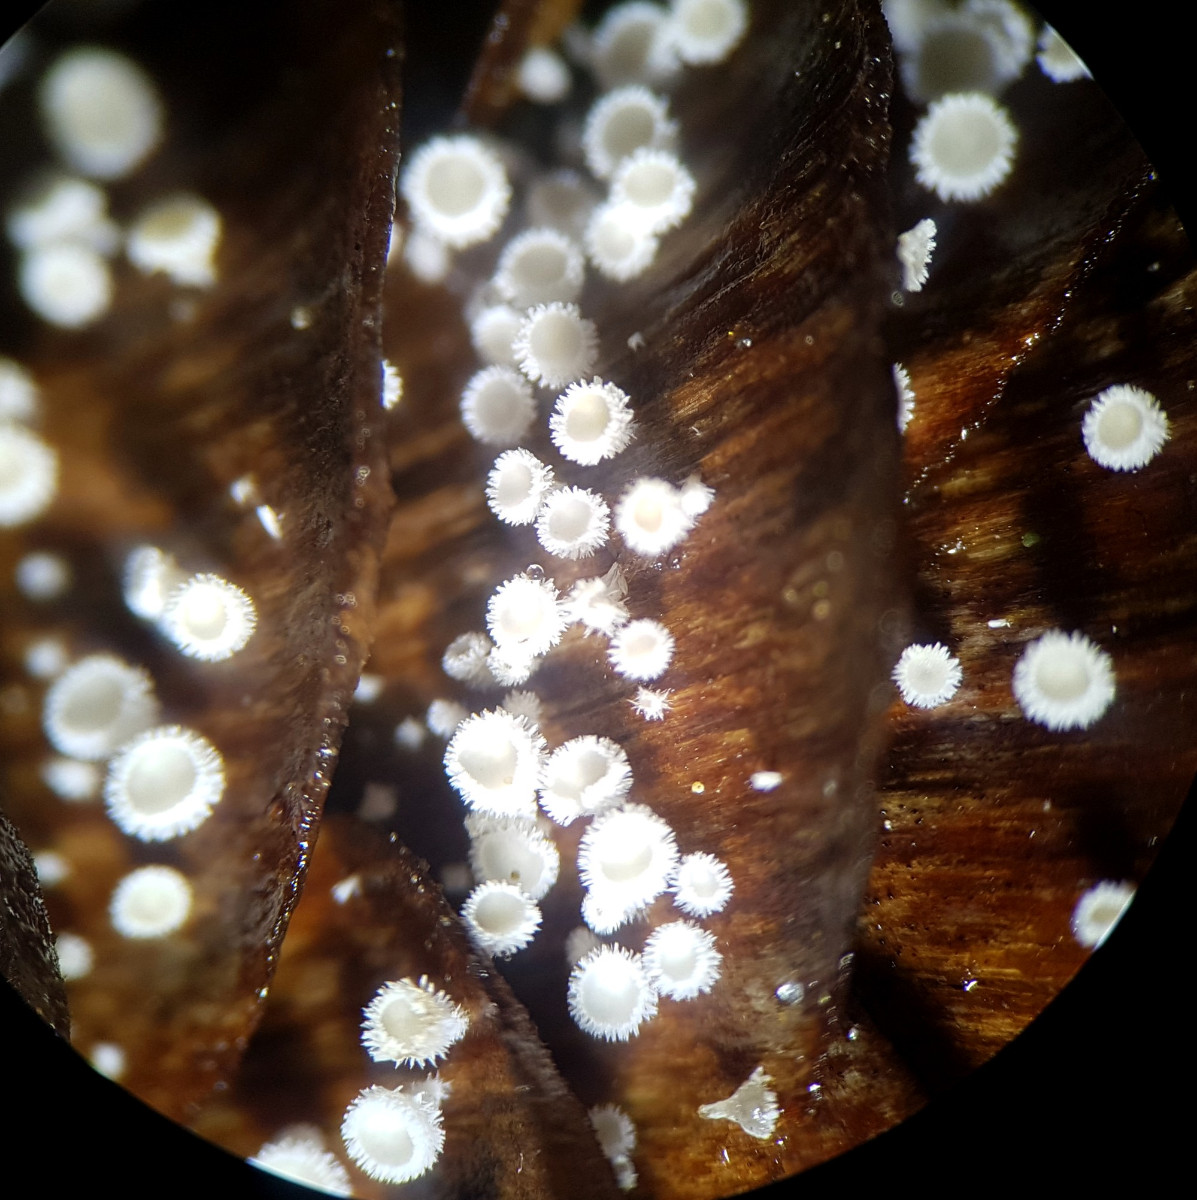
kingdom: Fungi
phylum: Ascomycota
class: Leotiomycetes
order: Helotiales
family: Lachnaceae
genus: Lachnum
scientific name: Lachnum virgineum
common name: jomfru-frynseskive
